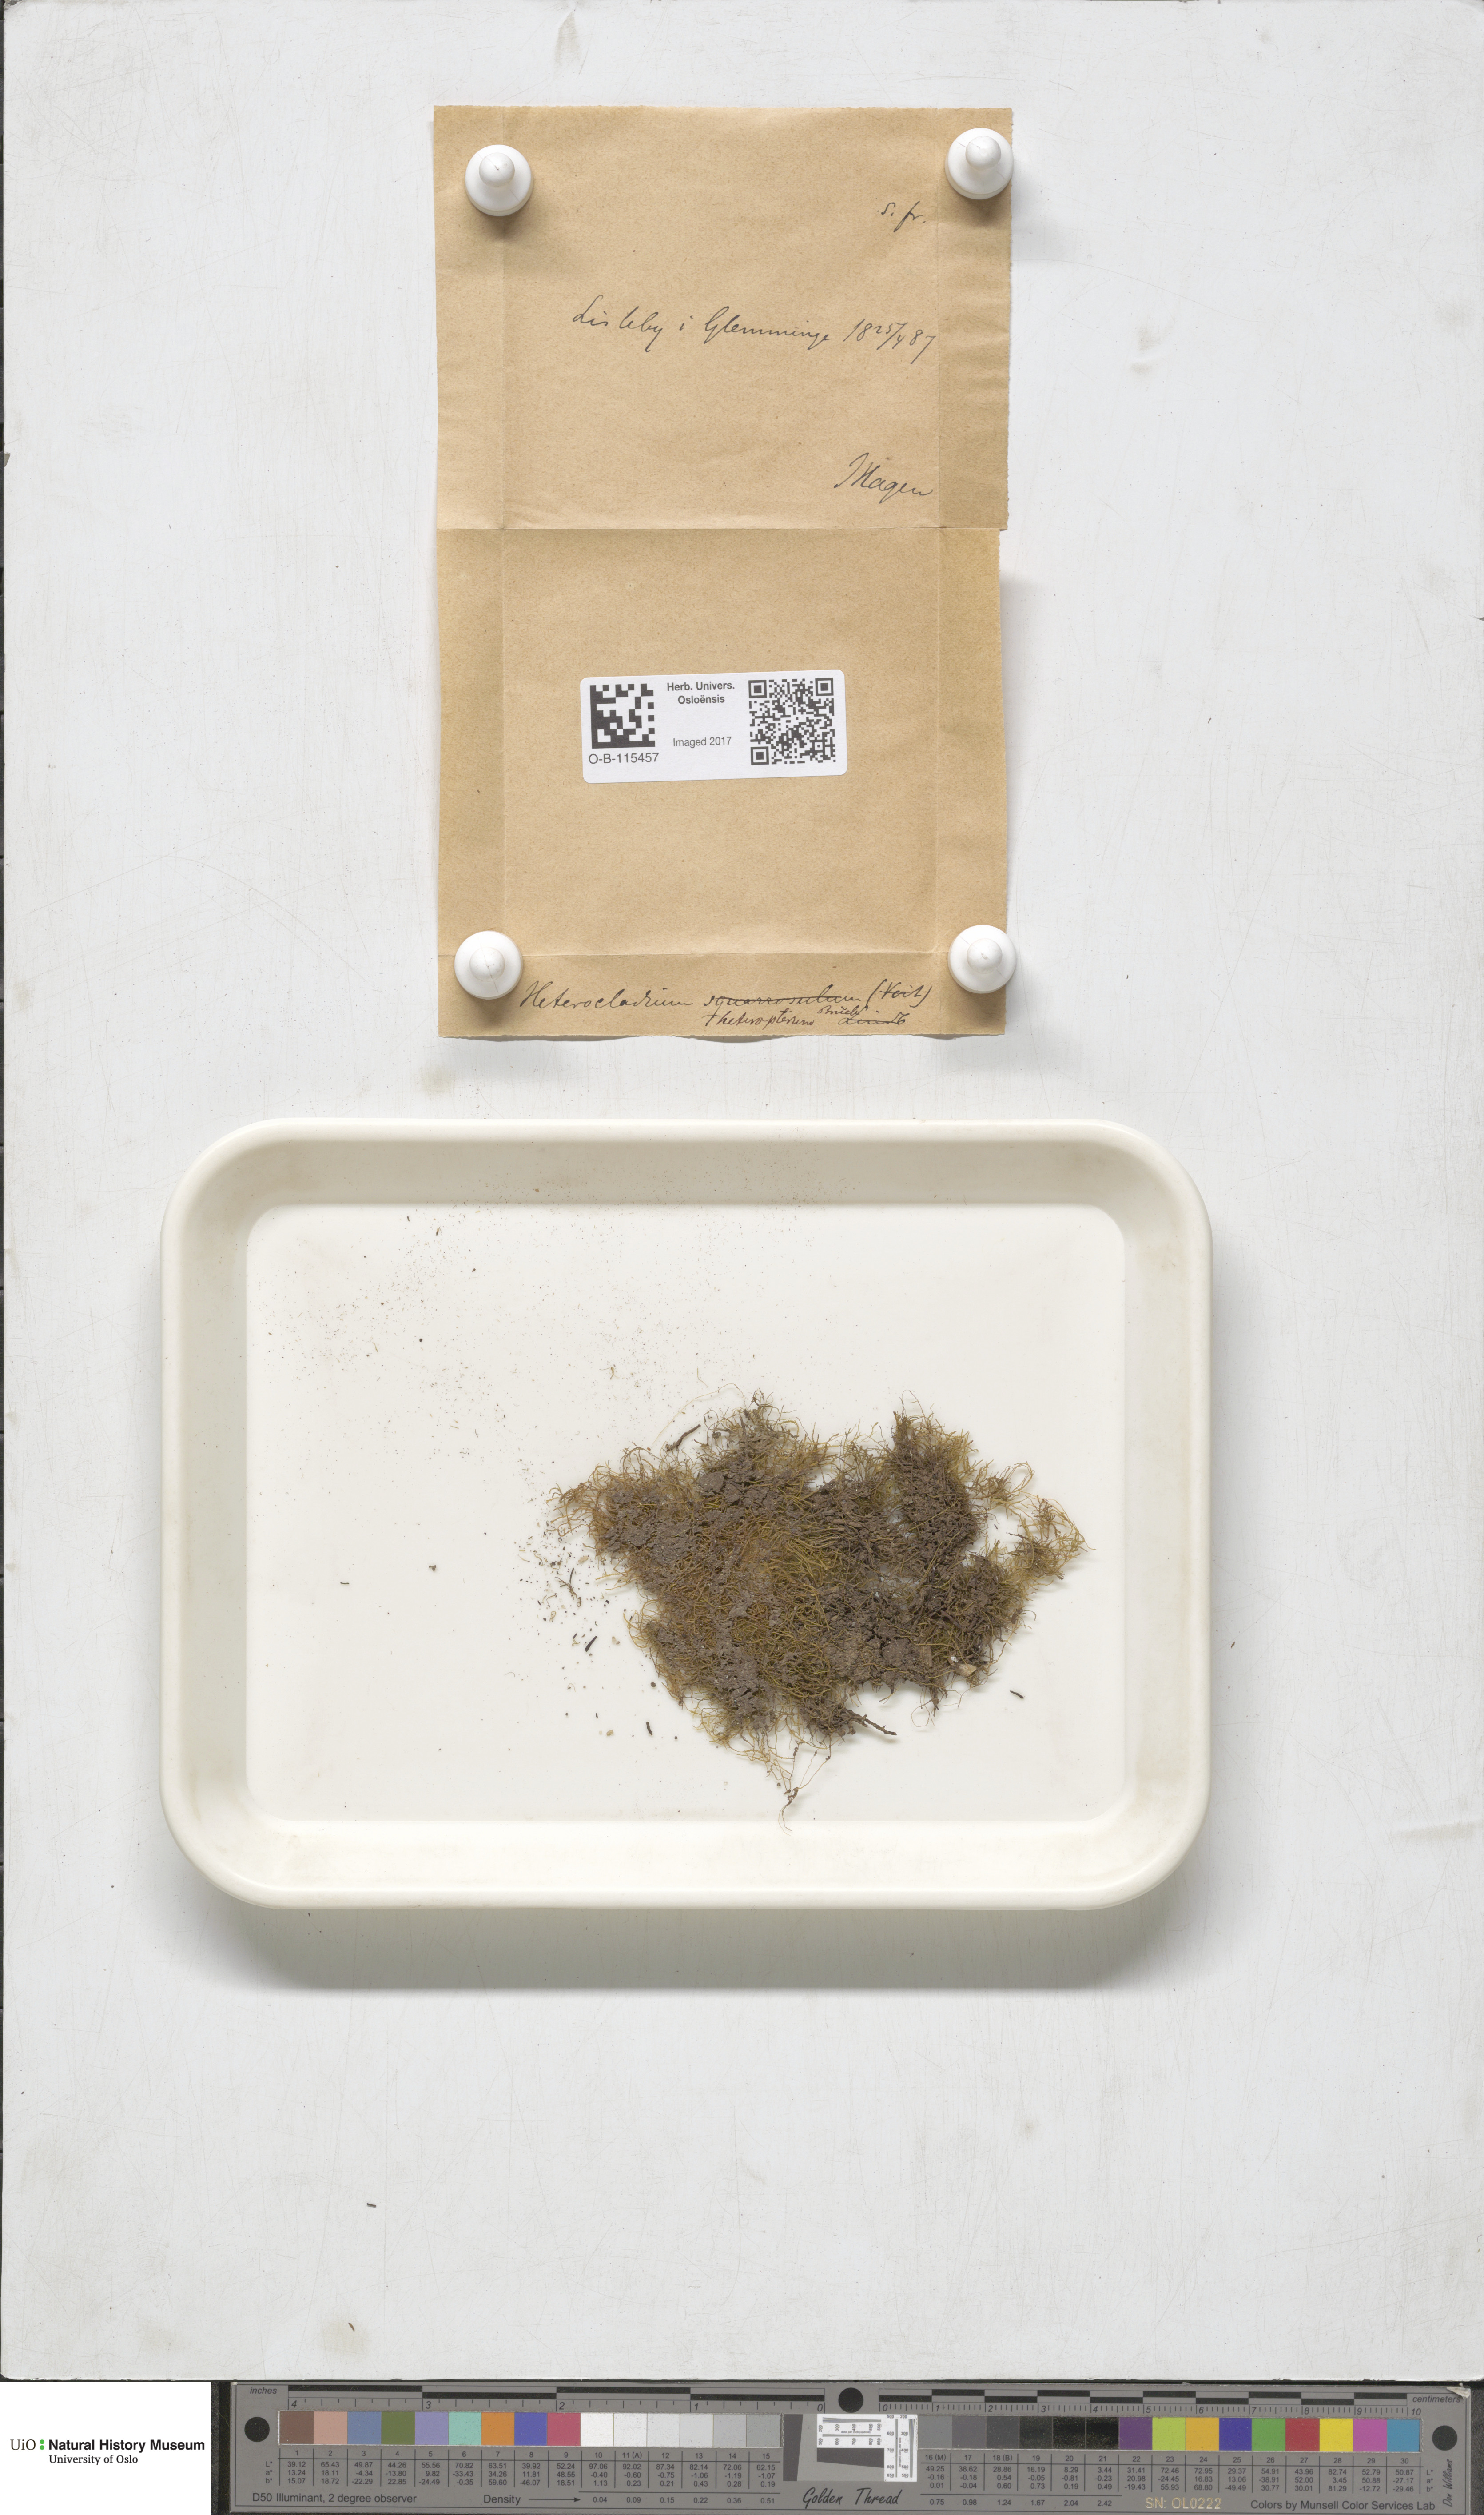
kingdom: Plantae
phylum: Bryophyta
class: Bryopsida
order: Hypnales
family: Lembophyllaceae
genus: Heterocladium
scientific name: Heterocladium heteropterum
